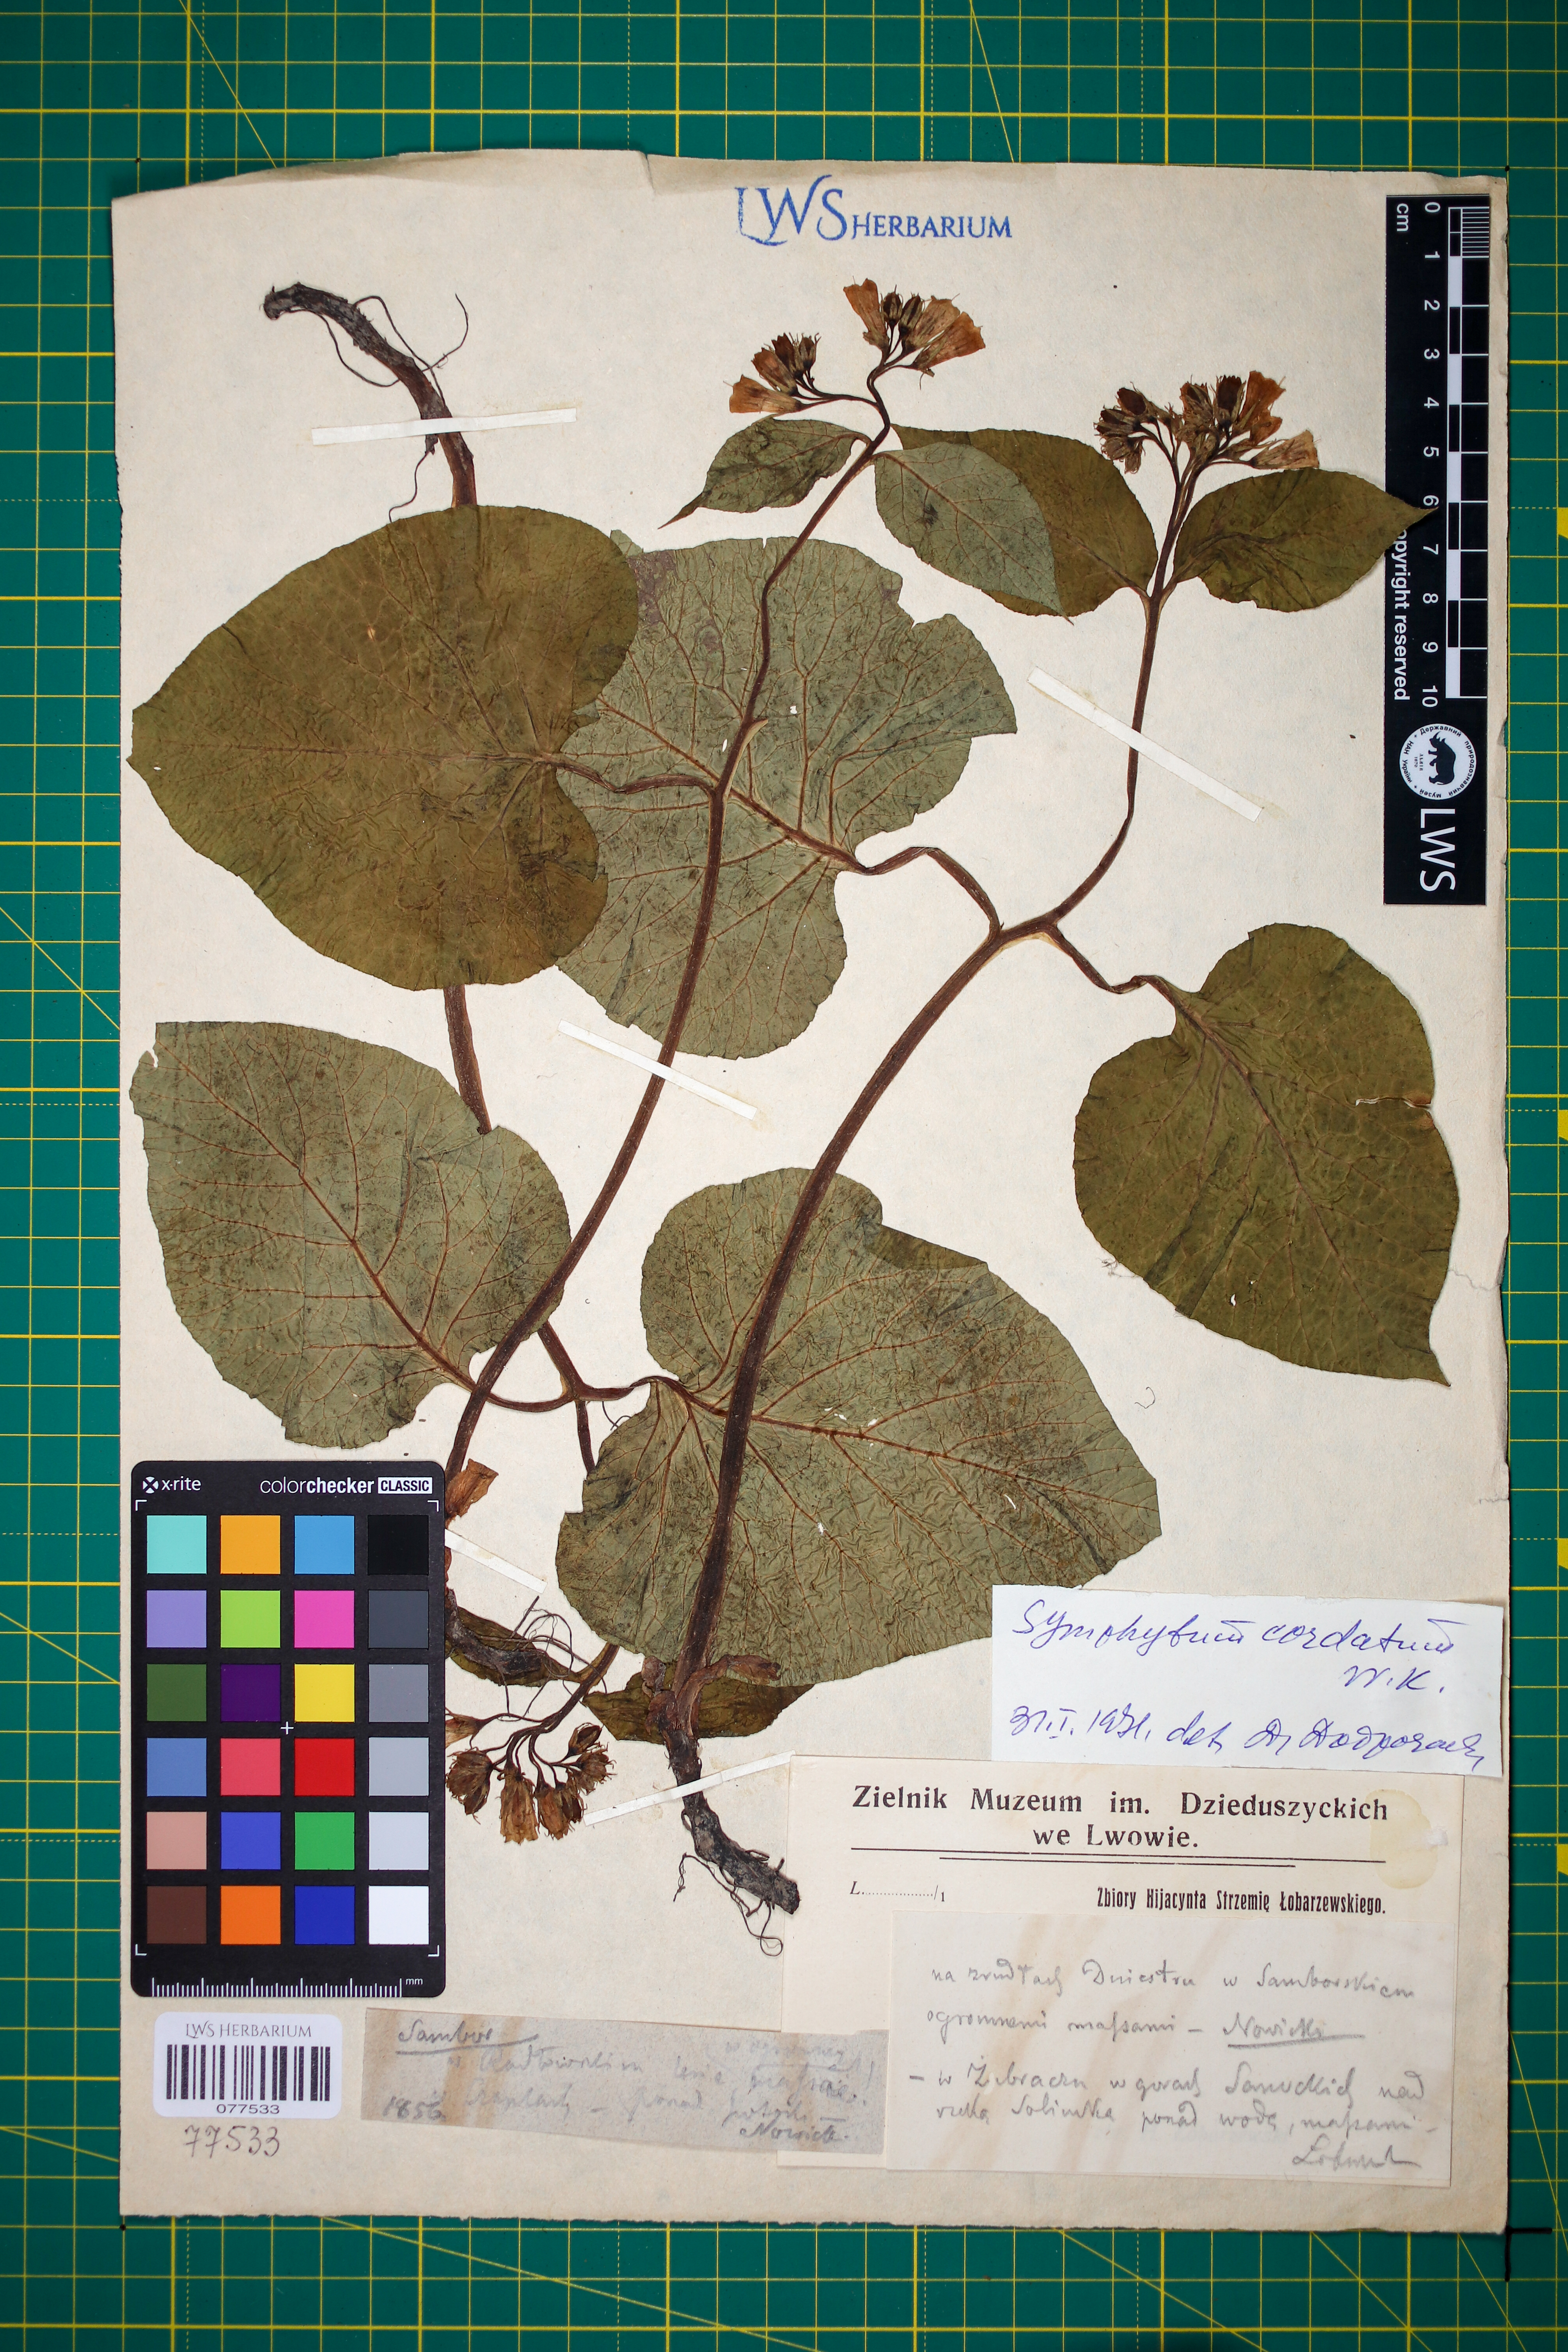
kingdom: Plantae
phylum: Tracheophyta
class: Magnoliopsida
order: Boraginales
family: Boraginaceae
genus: Symphytum
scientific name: Symphytum cordatum
